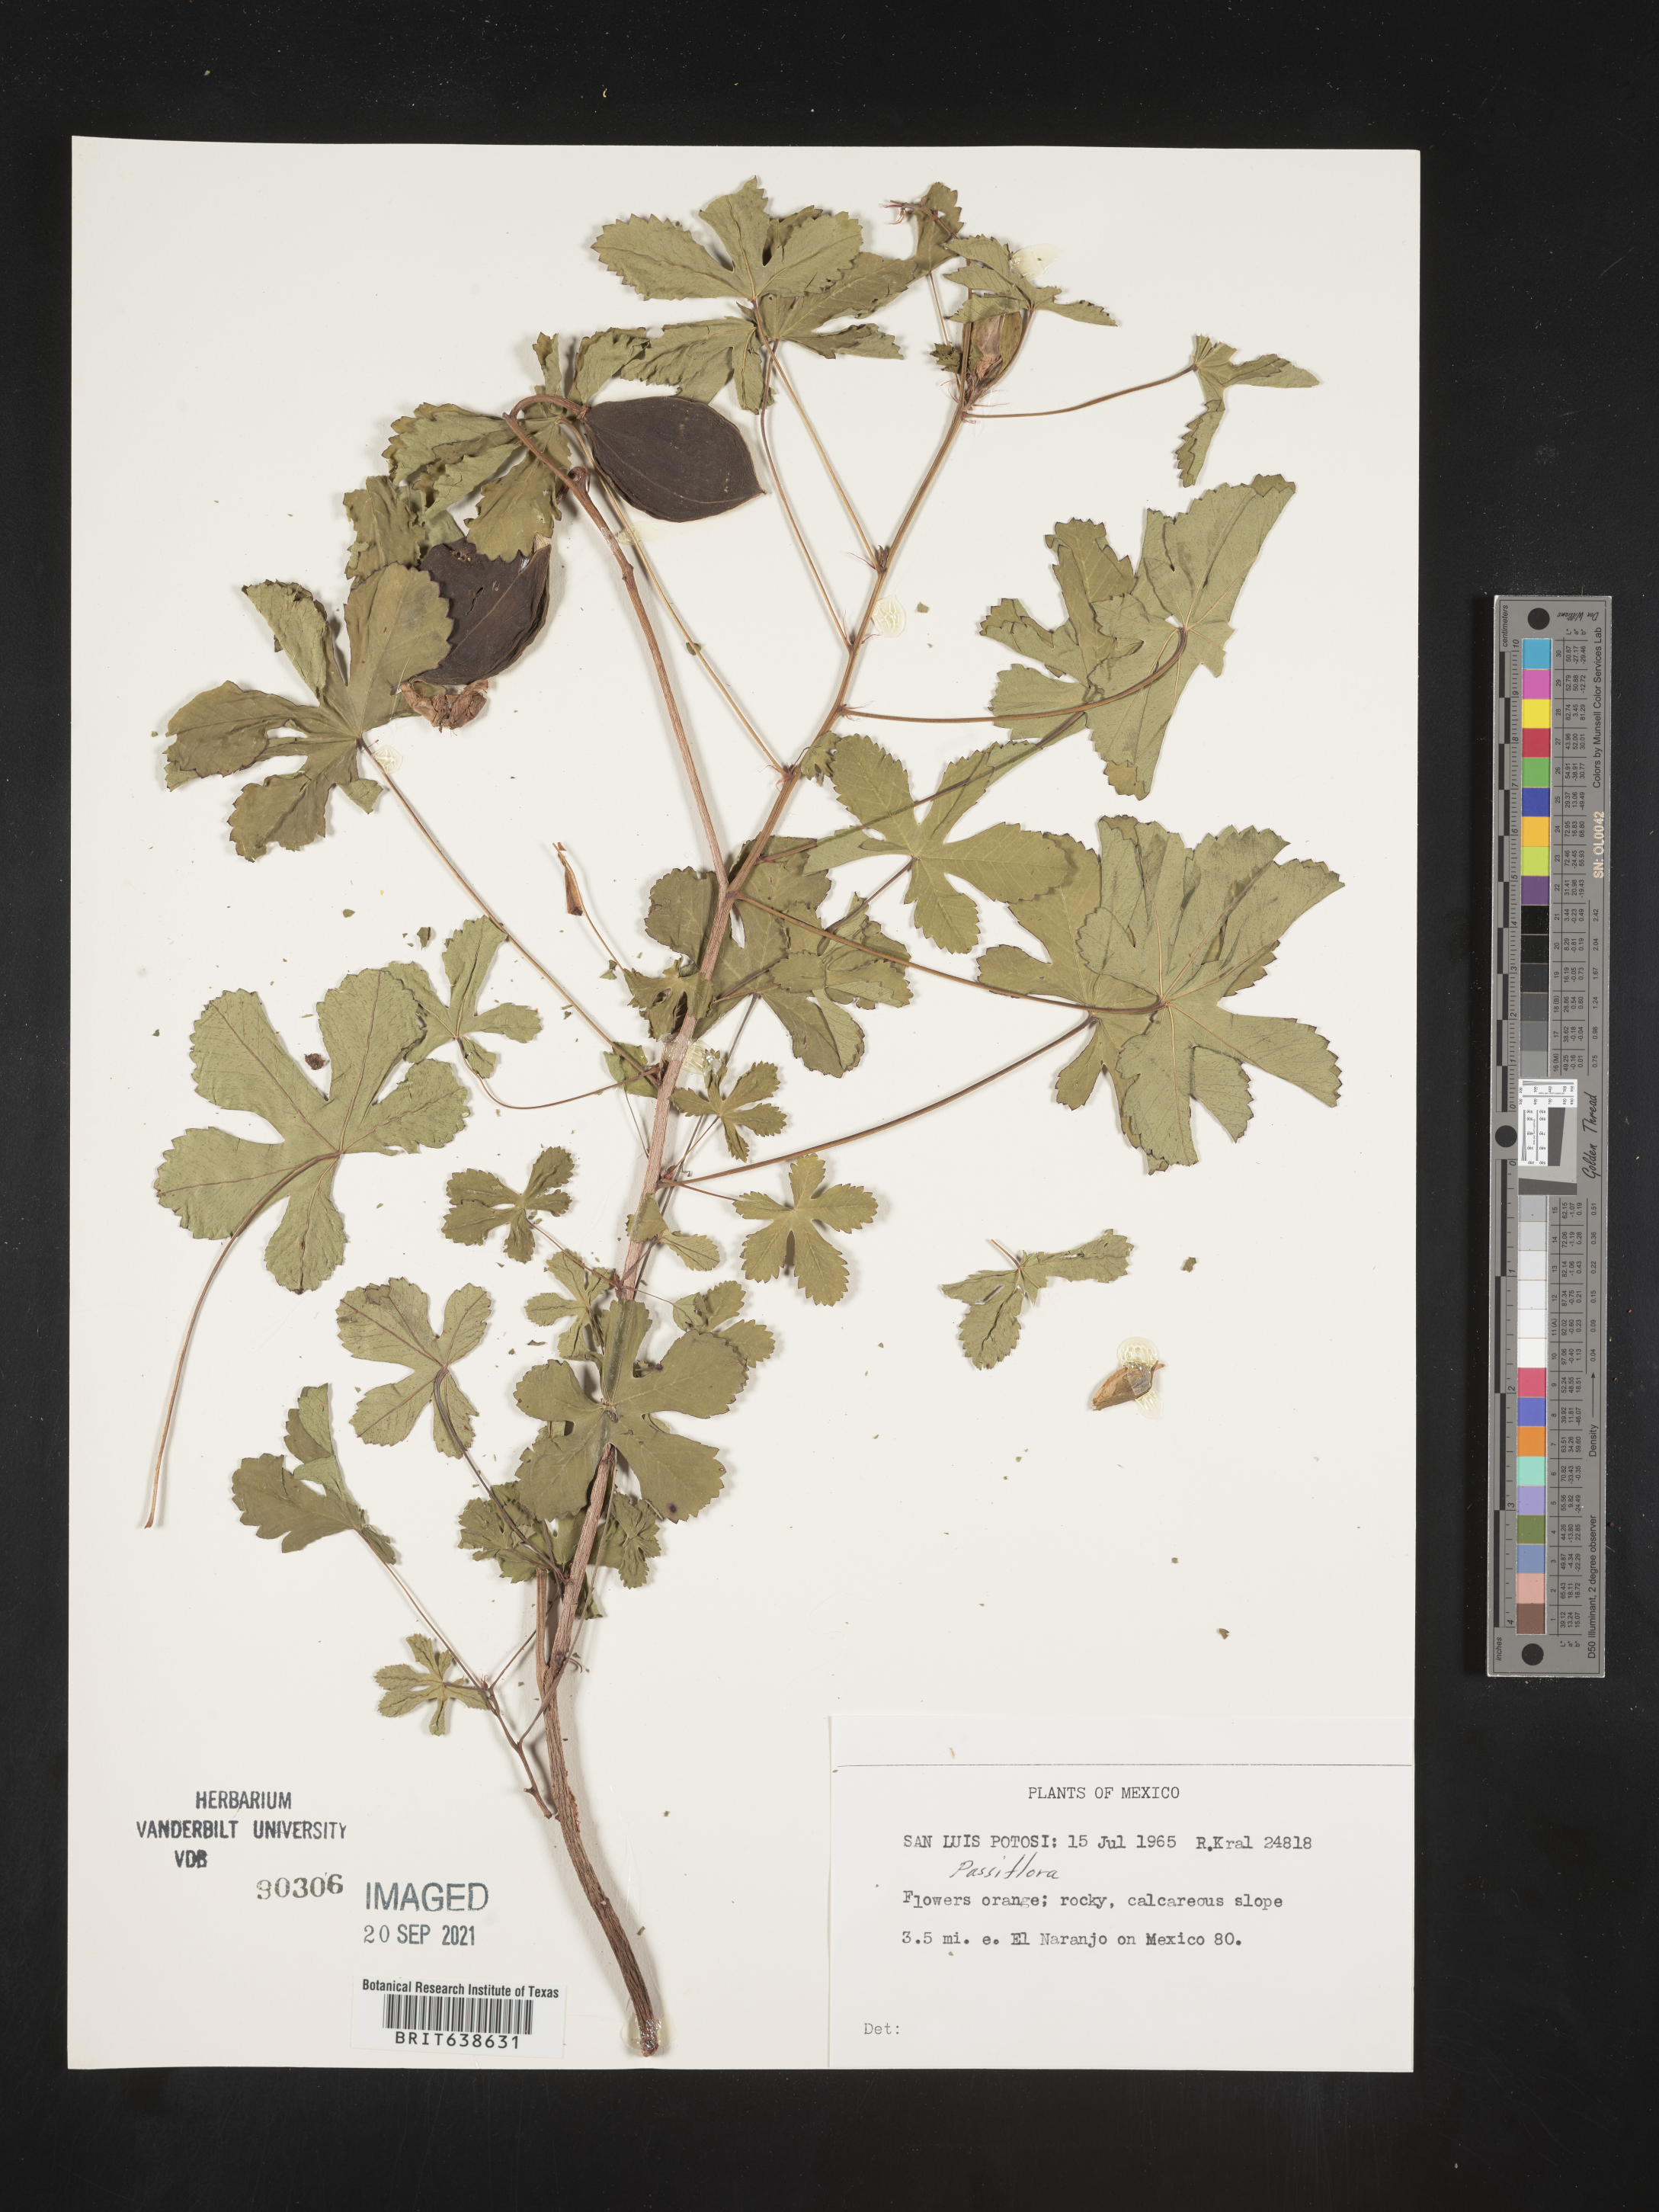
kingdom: Plantae
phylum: Tracheophyta
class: Magnoliopsida
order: Malpighiales
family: Passifloraceae
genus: Passiflora
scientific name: Passiflora
